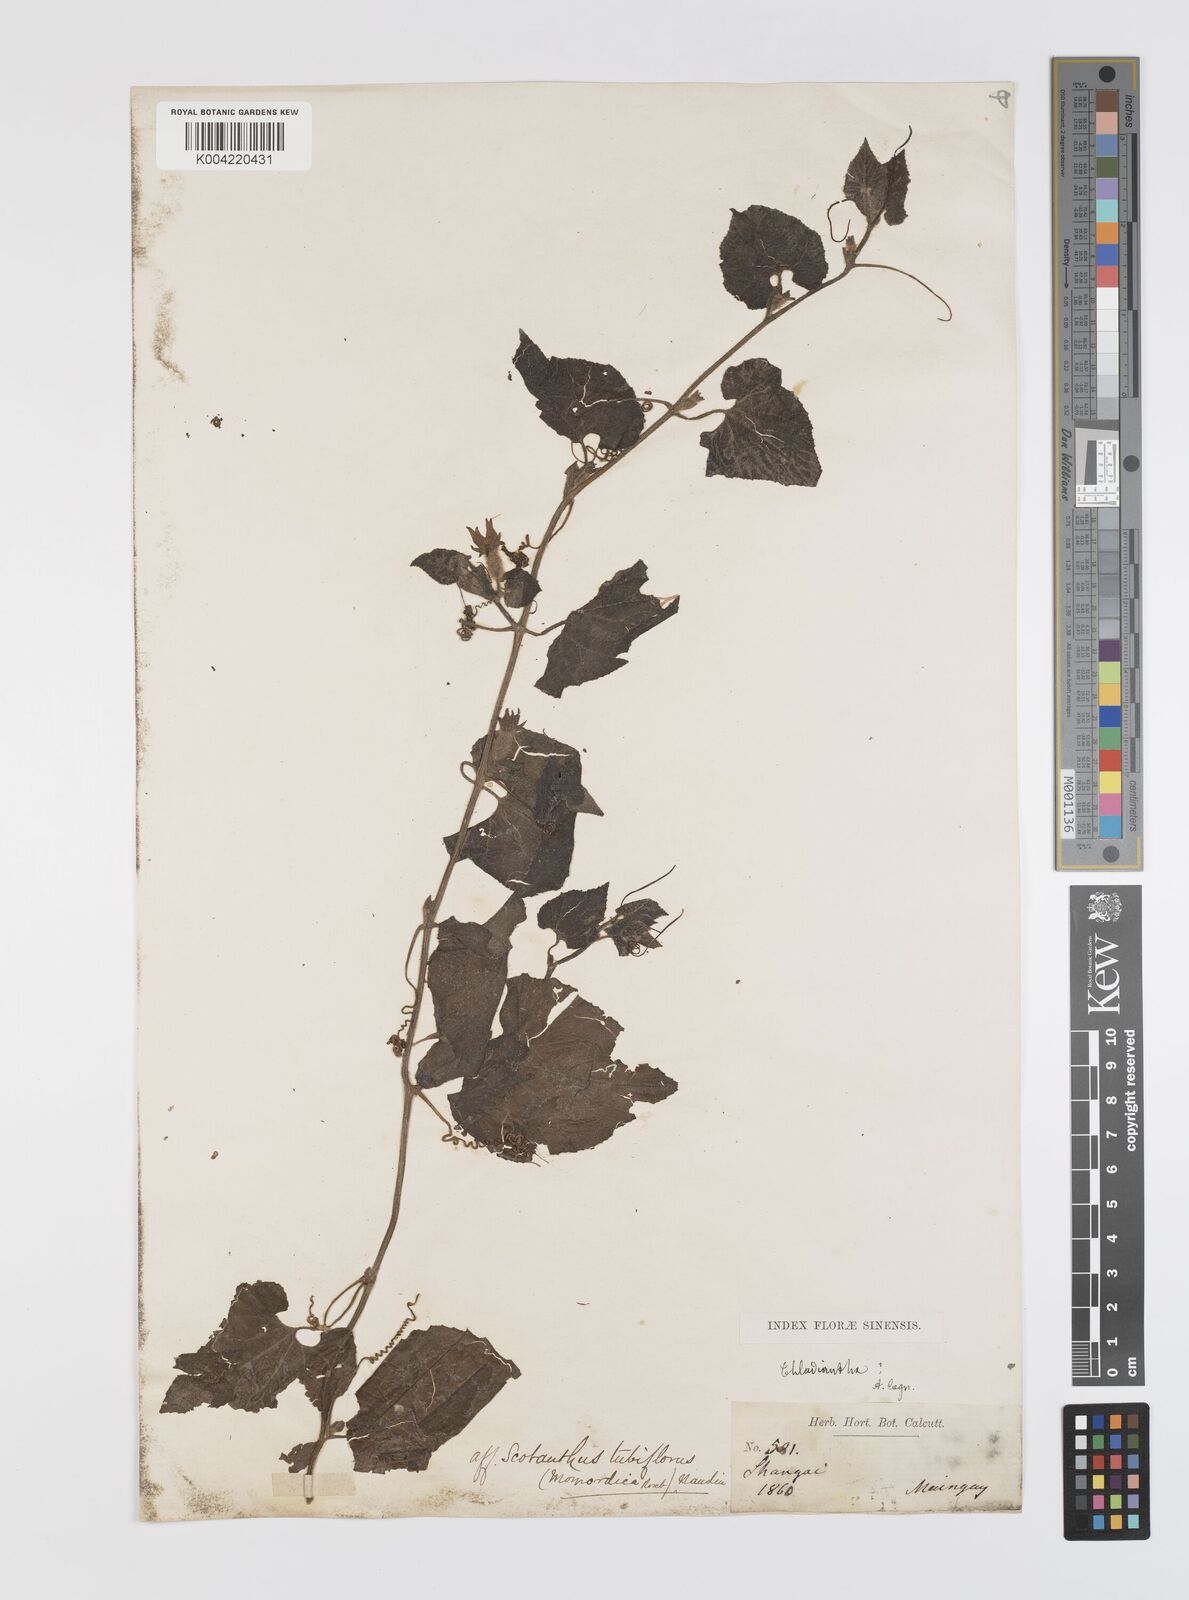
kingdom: Plantae
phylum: Tracheophyta
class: Magnoliopsida
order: Cucurbitales
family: Cucurbitaceae
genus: Thladiantha
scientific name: Thladiantha nudiflora
